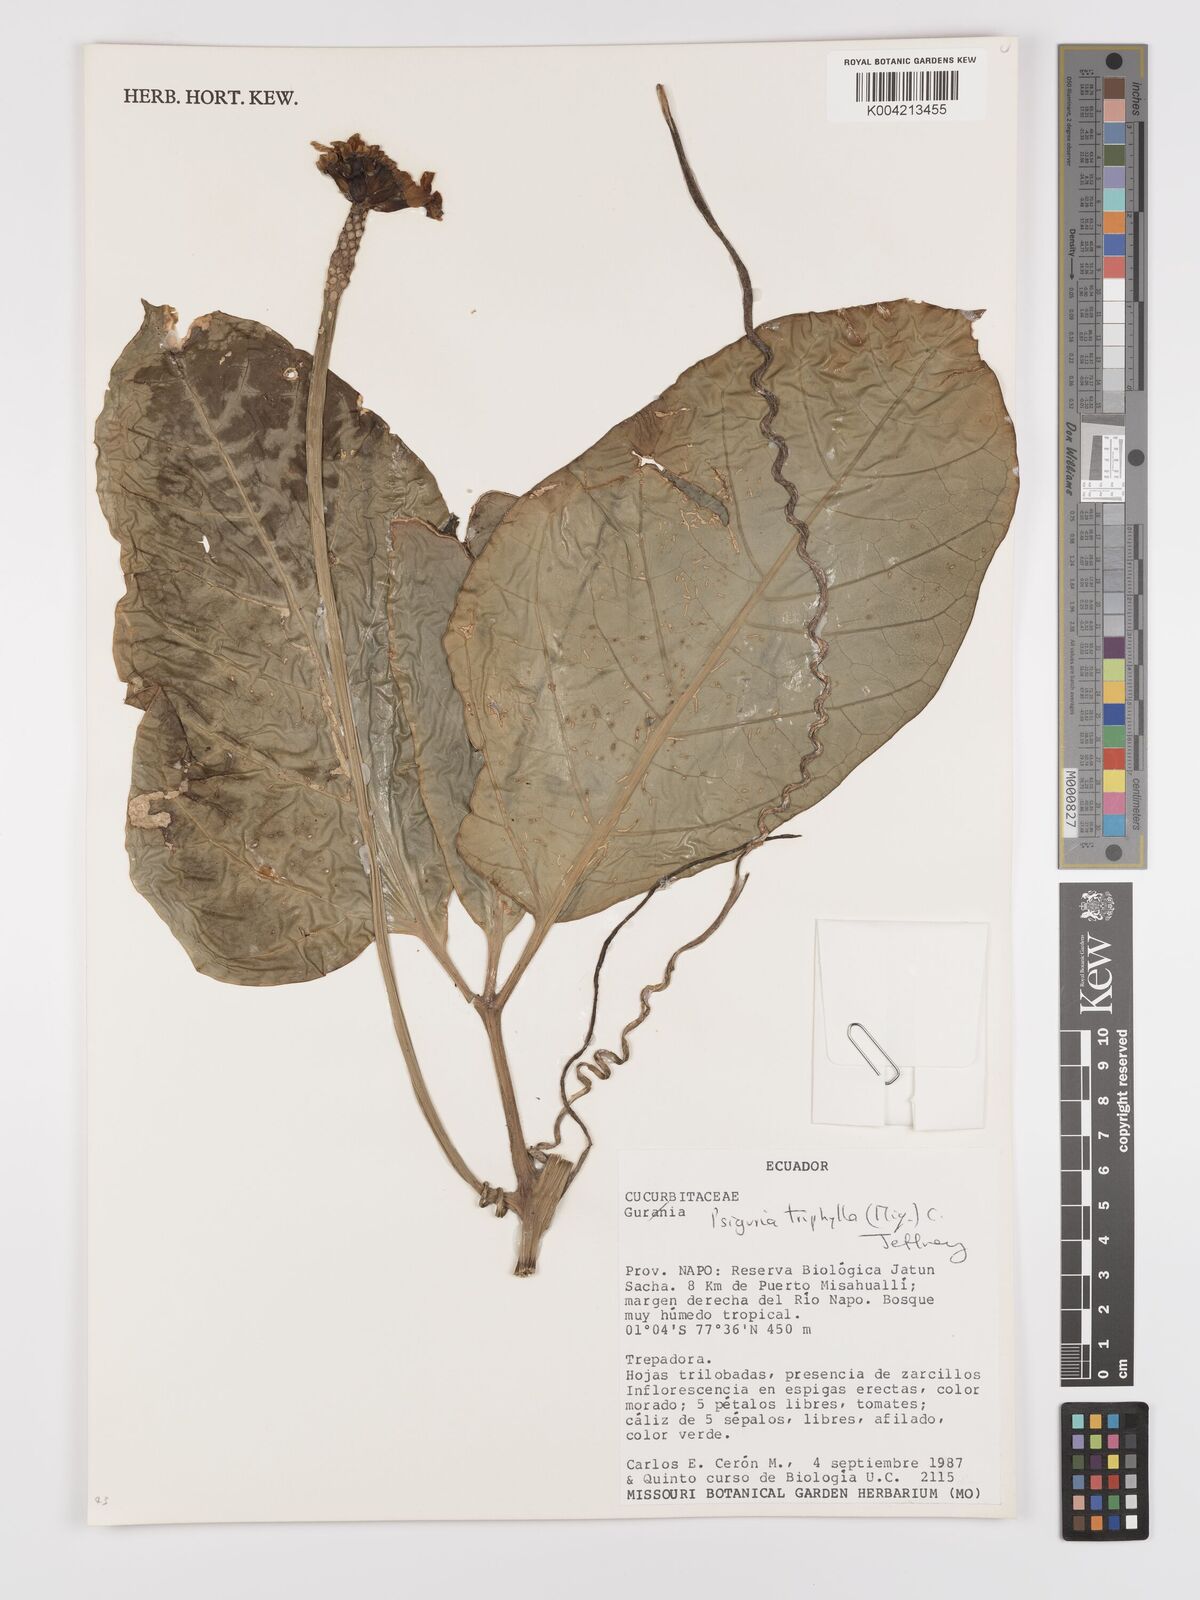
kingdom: Plantae
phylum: Tracheophyta
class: Magnoliopsida
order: Cucurbitales
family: Cucurbitaceae
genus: Psiguria
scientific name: Psiguria triphylla
